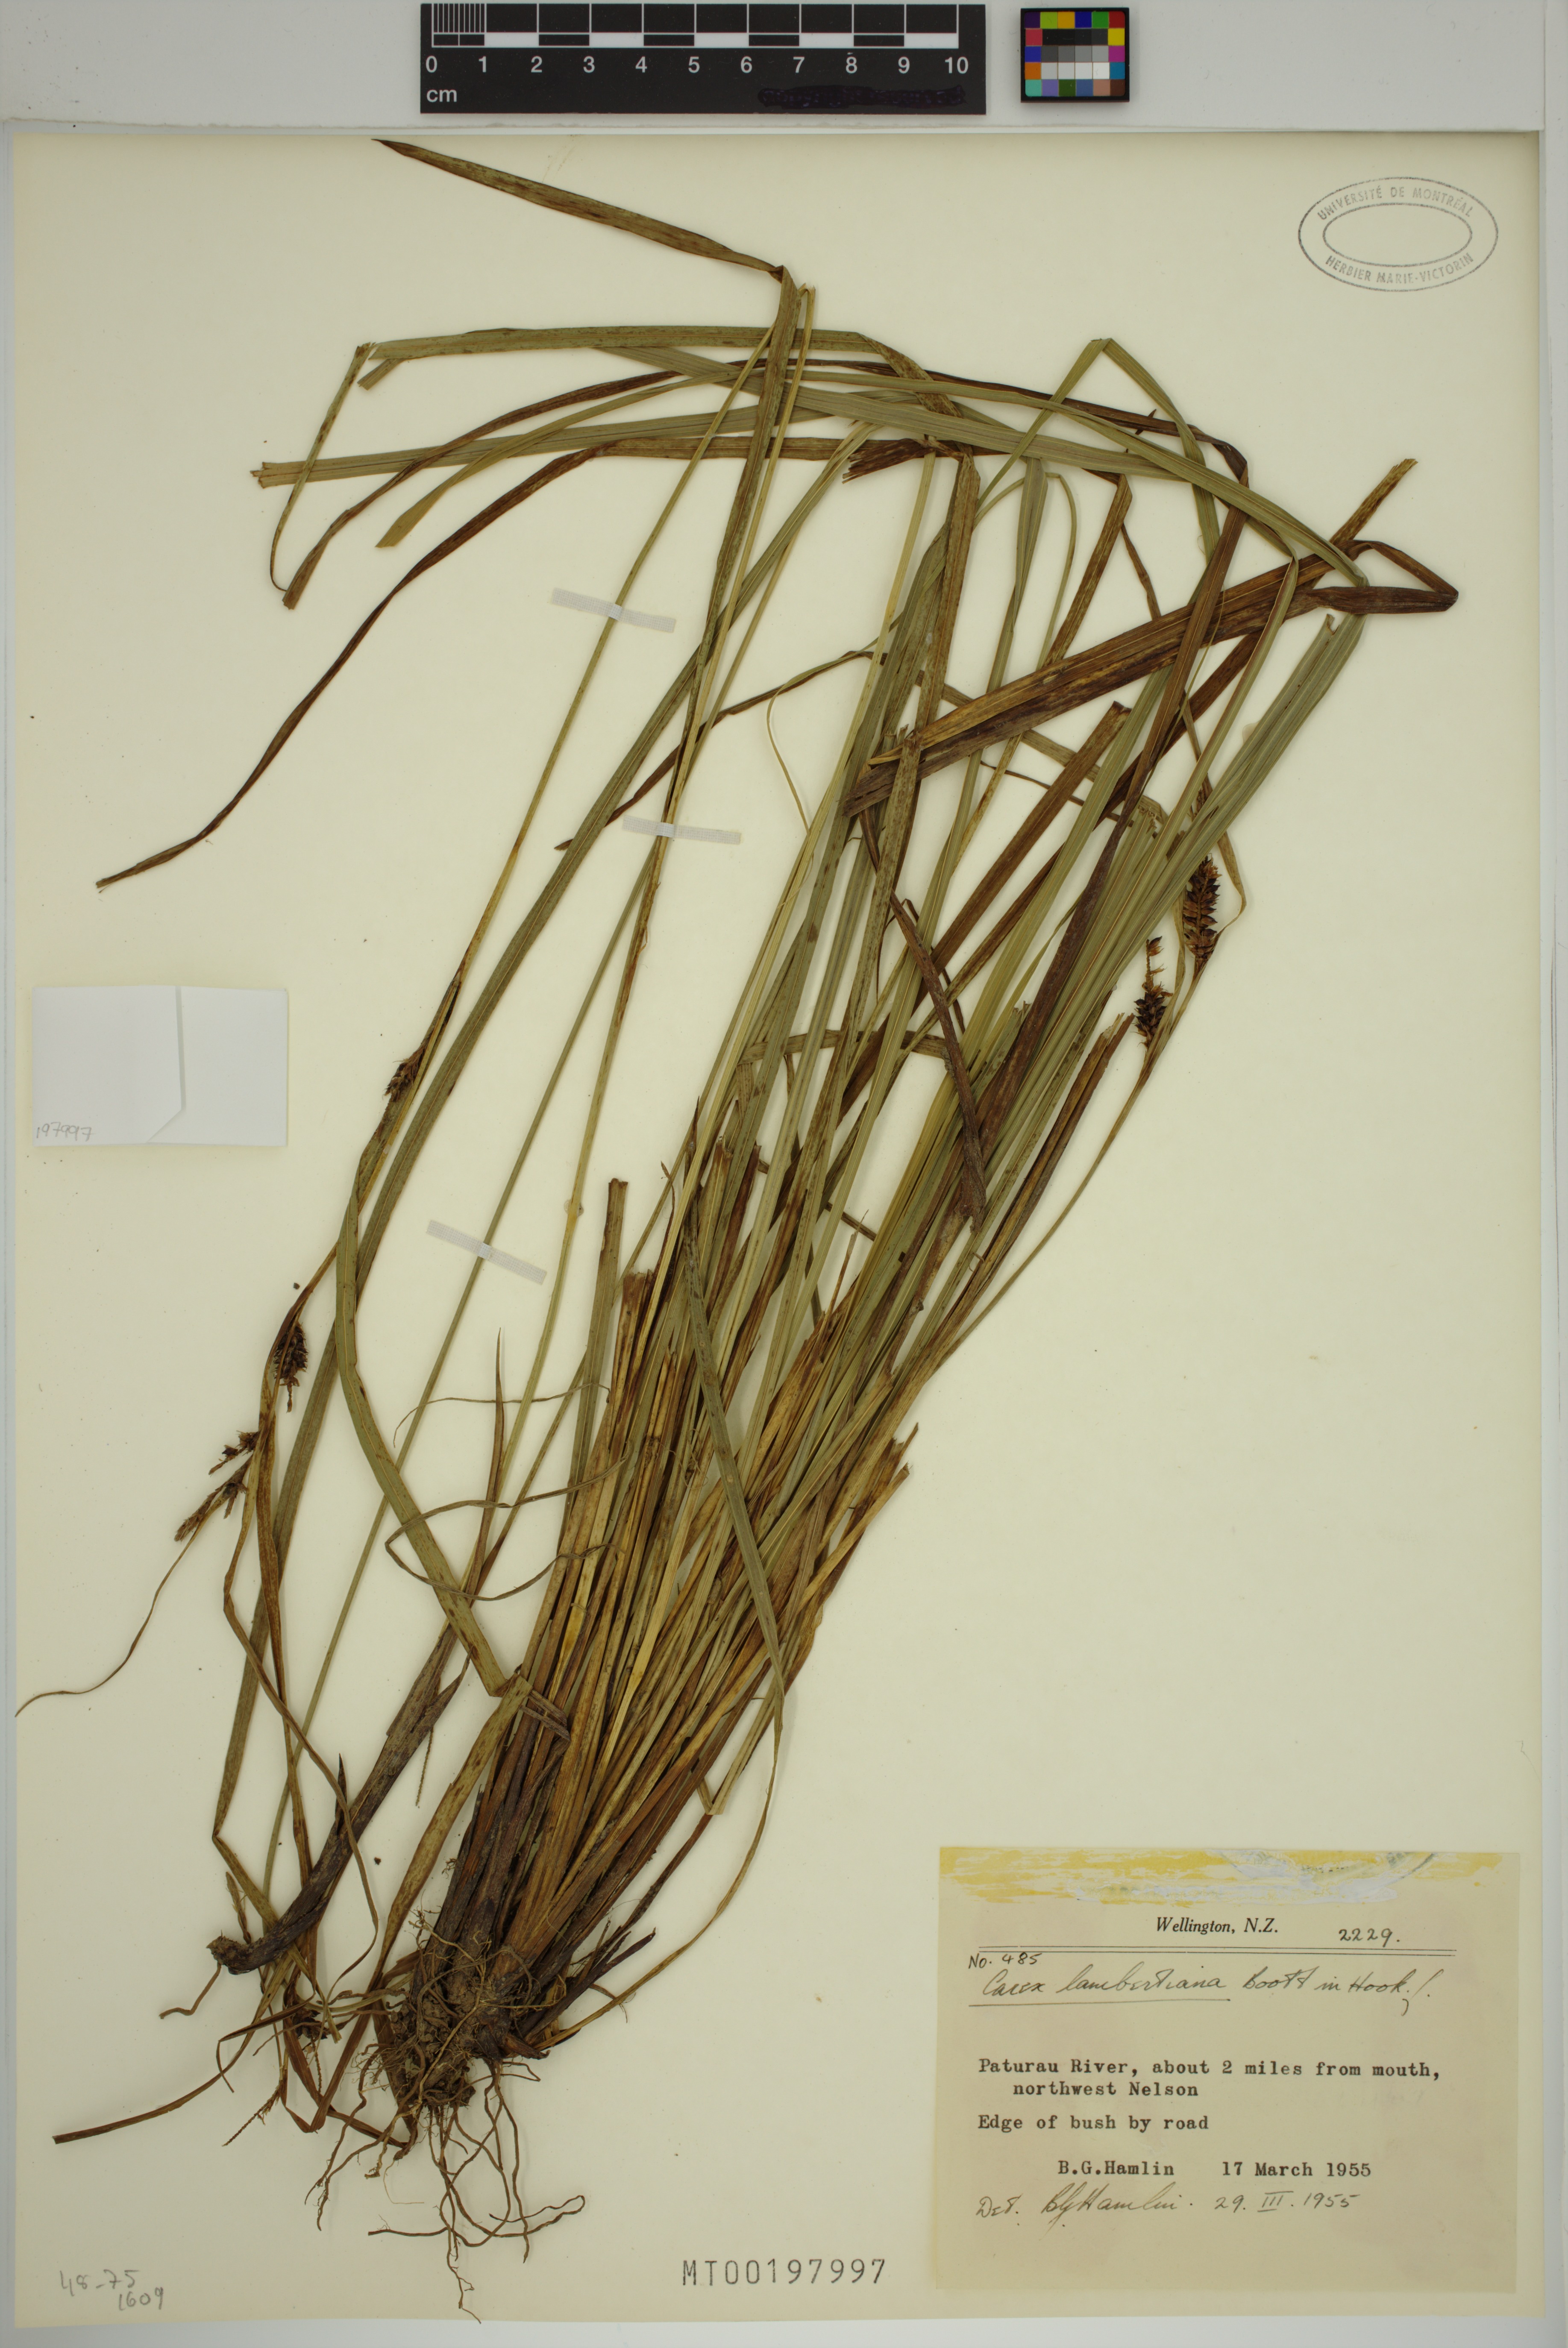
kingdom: Plantae
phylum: Tracheophyta
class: Liliopsida
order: Poales
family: Cyperaceae
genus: Carex
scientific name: Carex lambertiana
